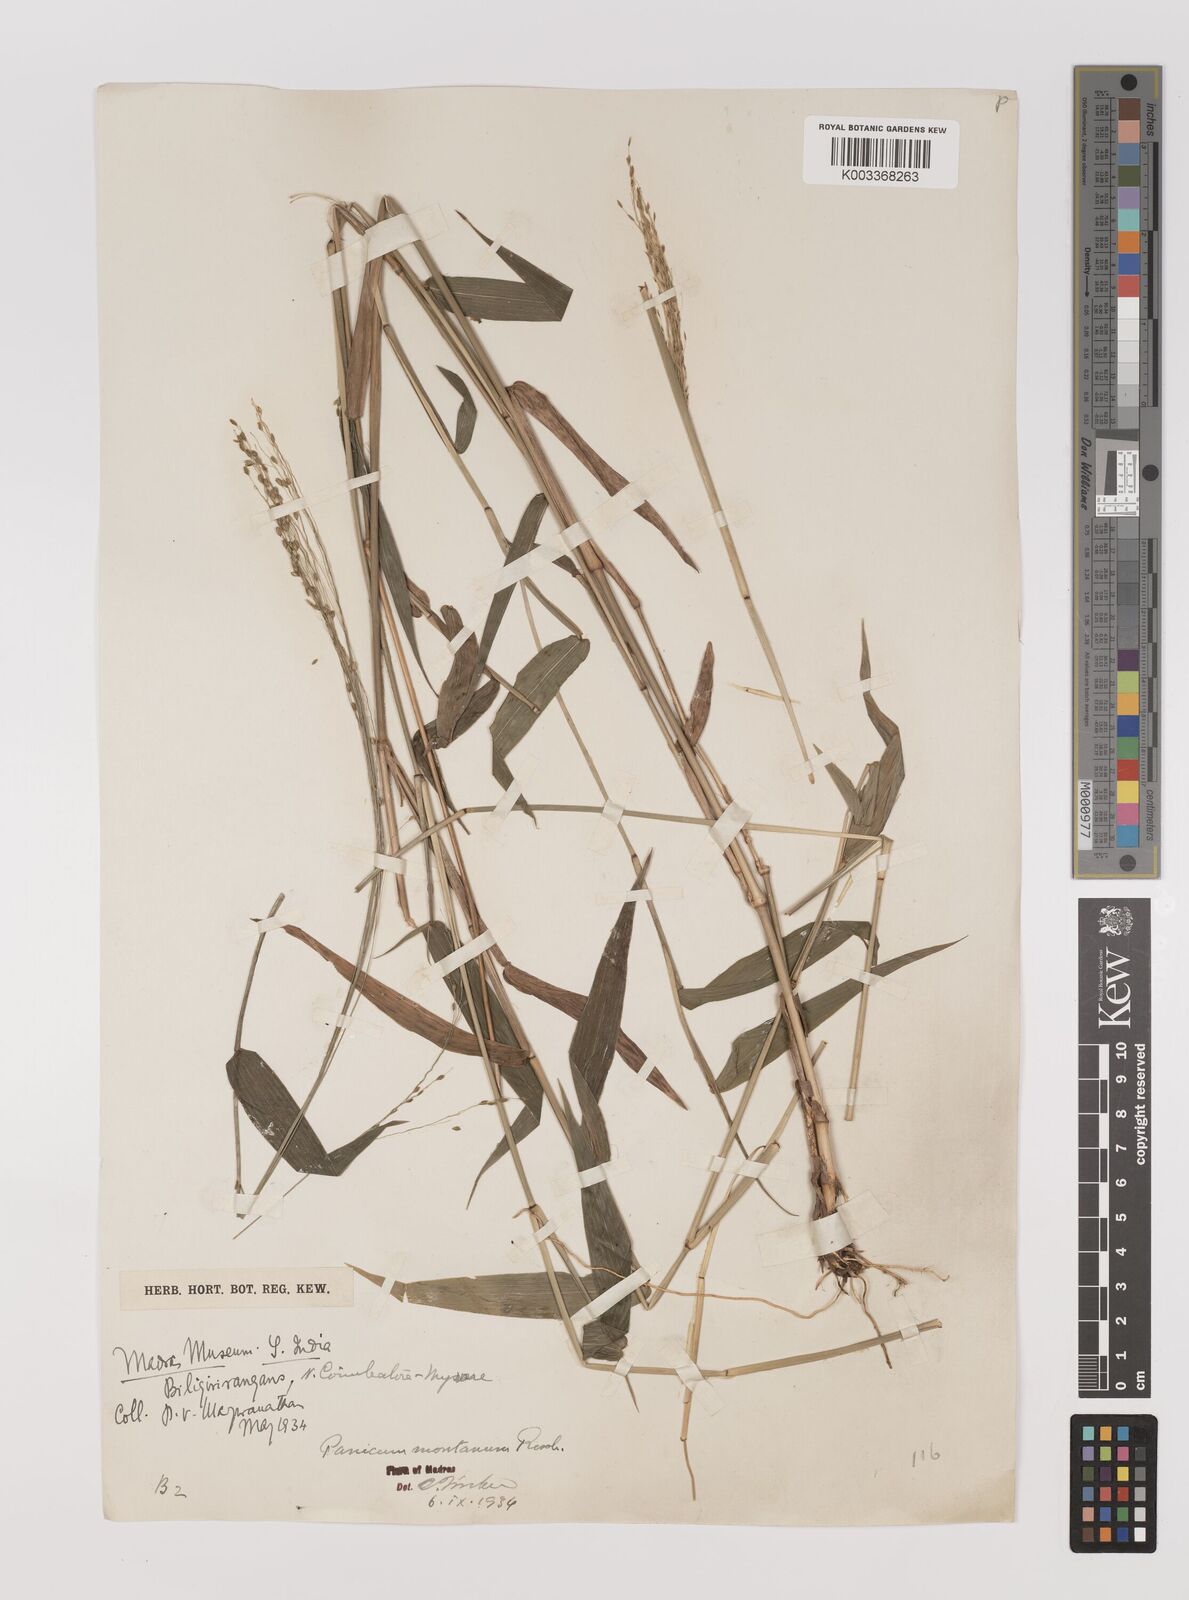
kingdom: Plantae
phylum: Tracheophyta
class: Liliopsida
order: Poales
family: Poaceae
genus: Panicum
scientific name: Panicum notatum
